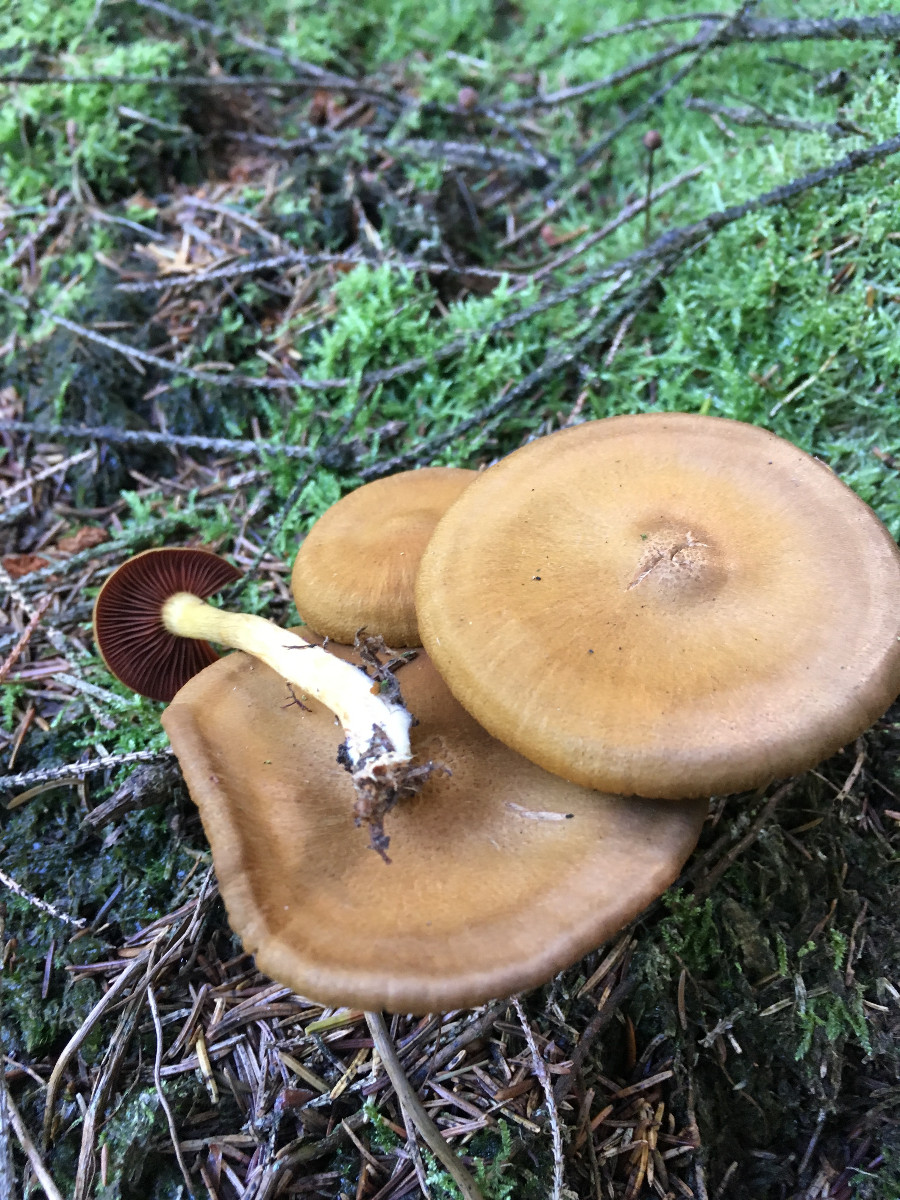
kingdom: Fungi
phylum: Basidiomycota
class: Agaricomycetes
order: Agaricales
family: Cortinariaceae
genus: Cortinarius
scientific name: Cortinarius
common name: cinnoberbladet slørhat
